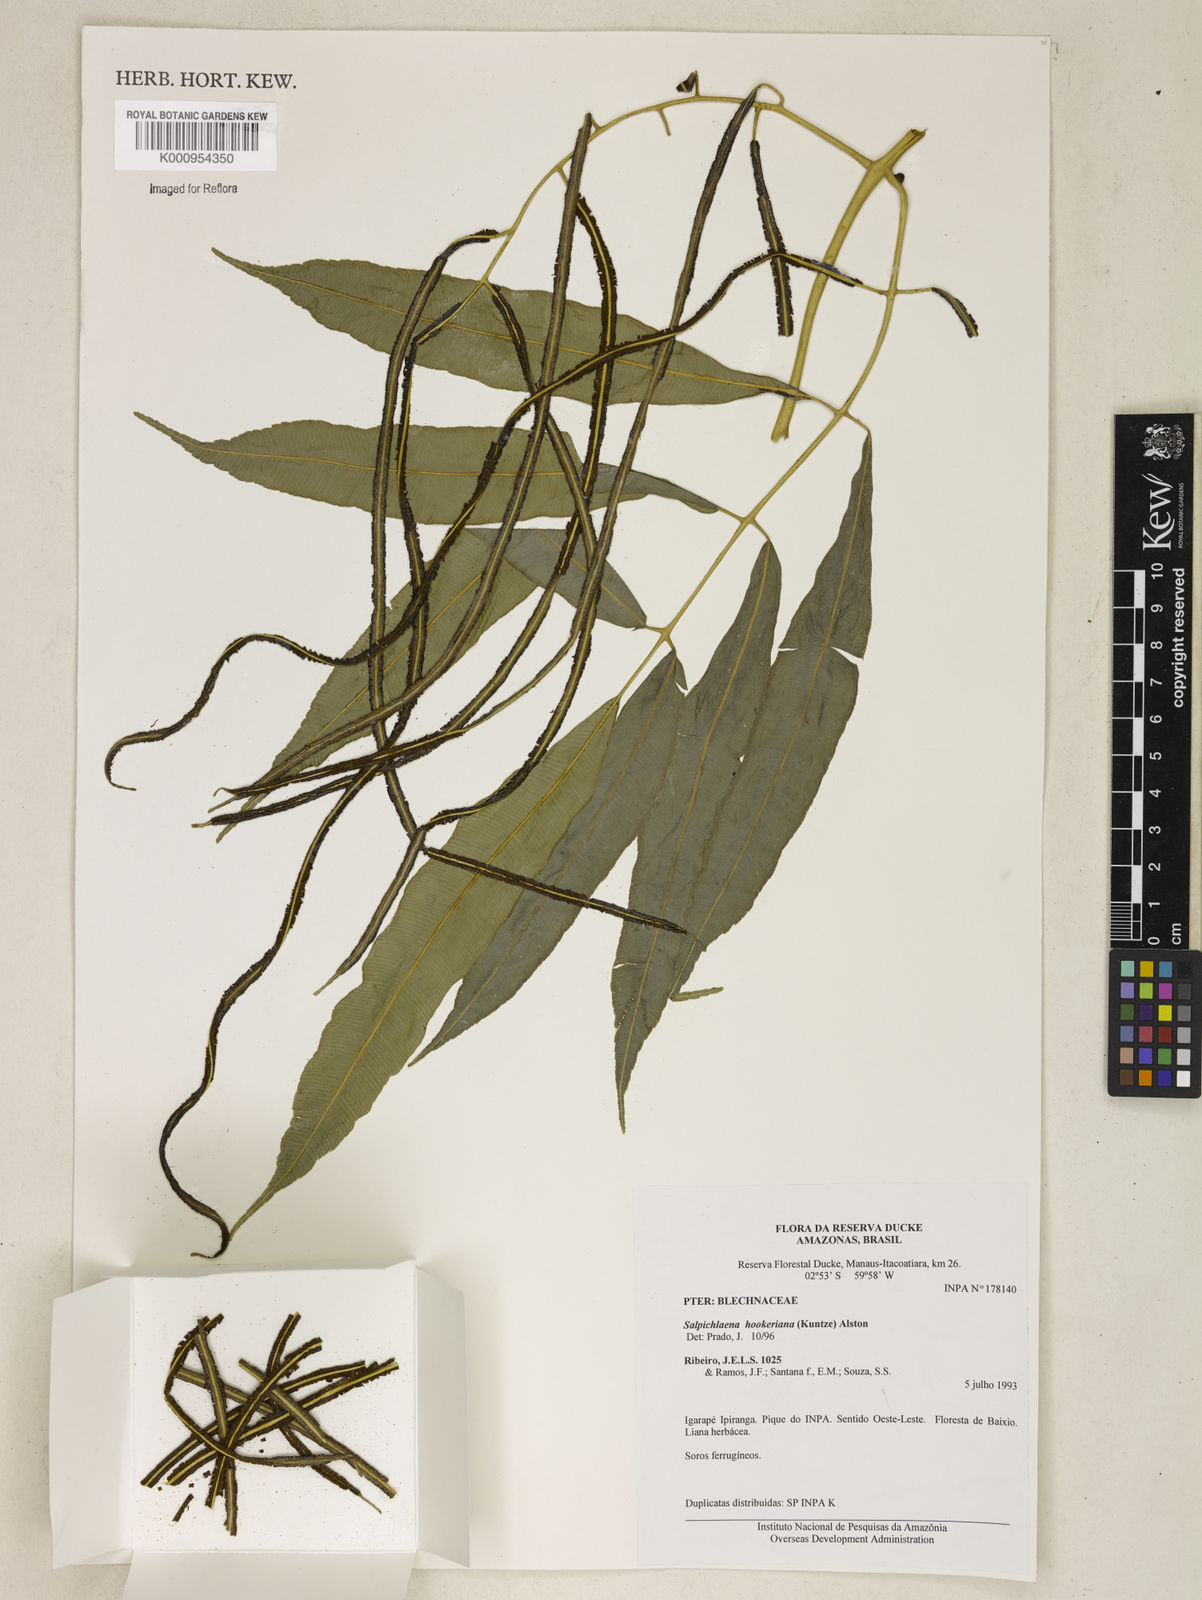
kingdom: Plantae
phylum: Tracheophyta
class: Polypodiopsida
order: Polypodiales
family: Blechnaceae
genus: Blechnum
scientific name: Blechnum
